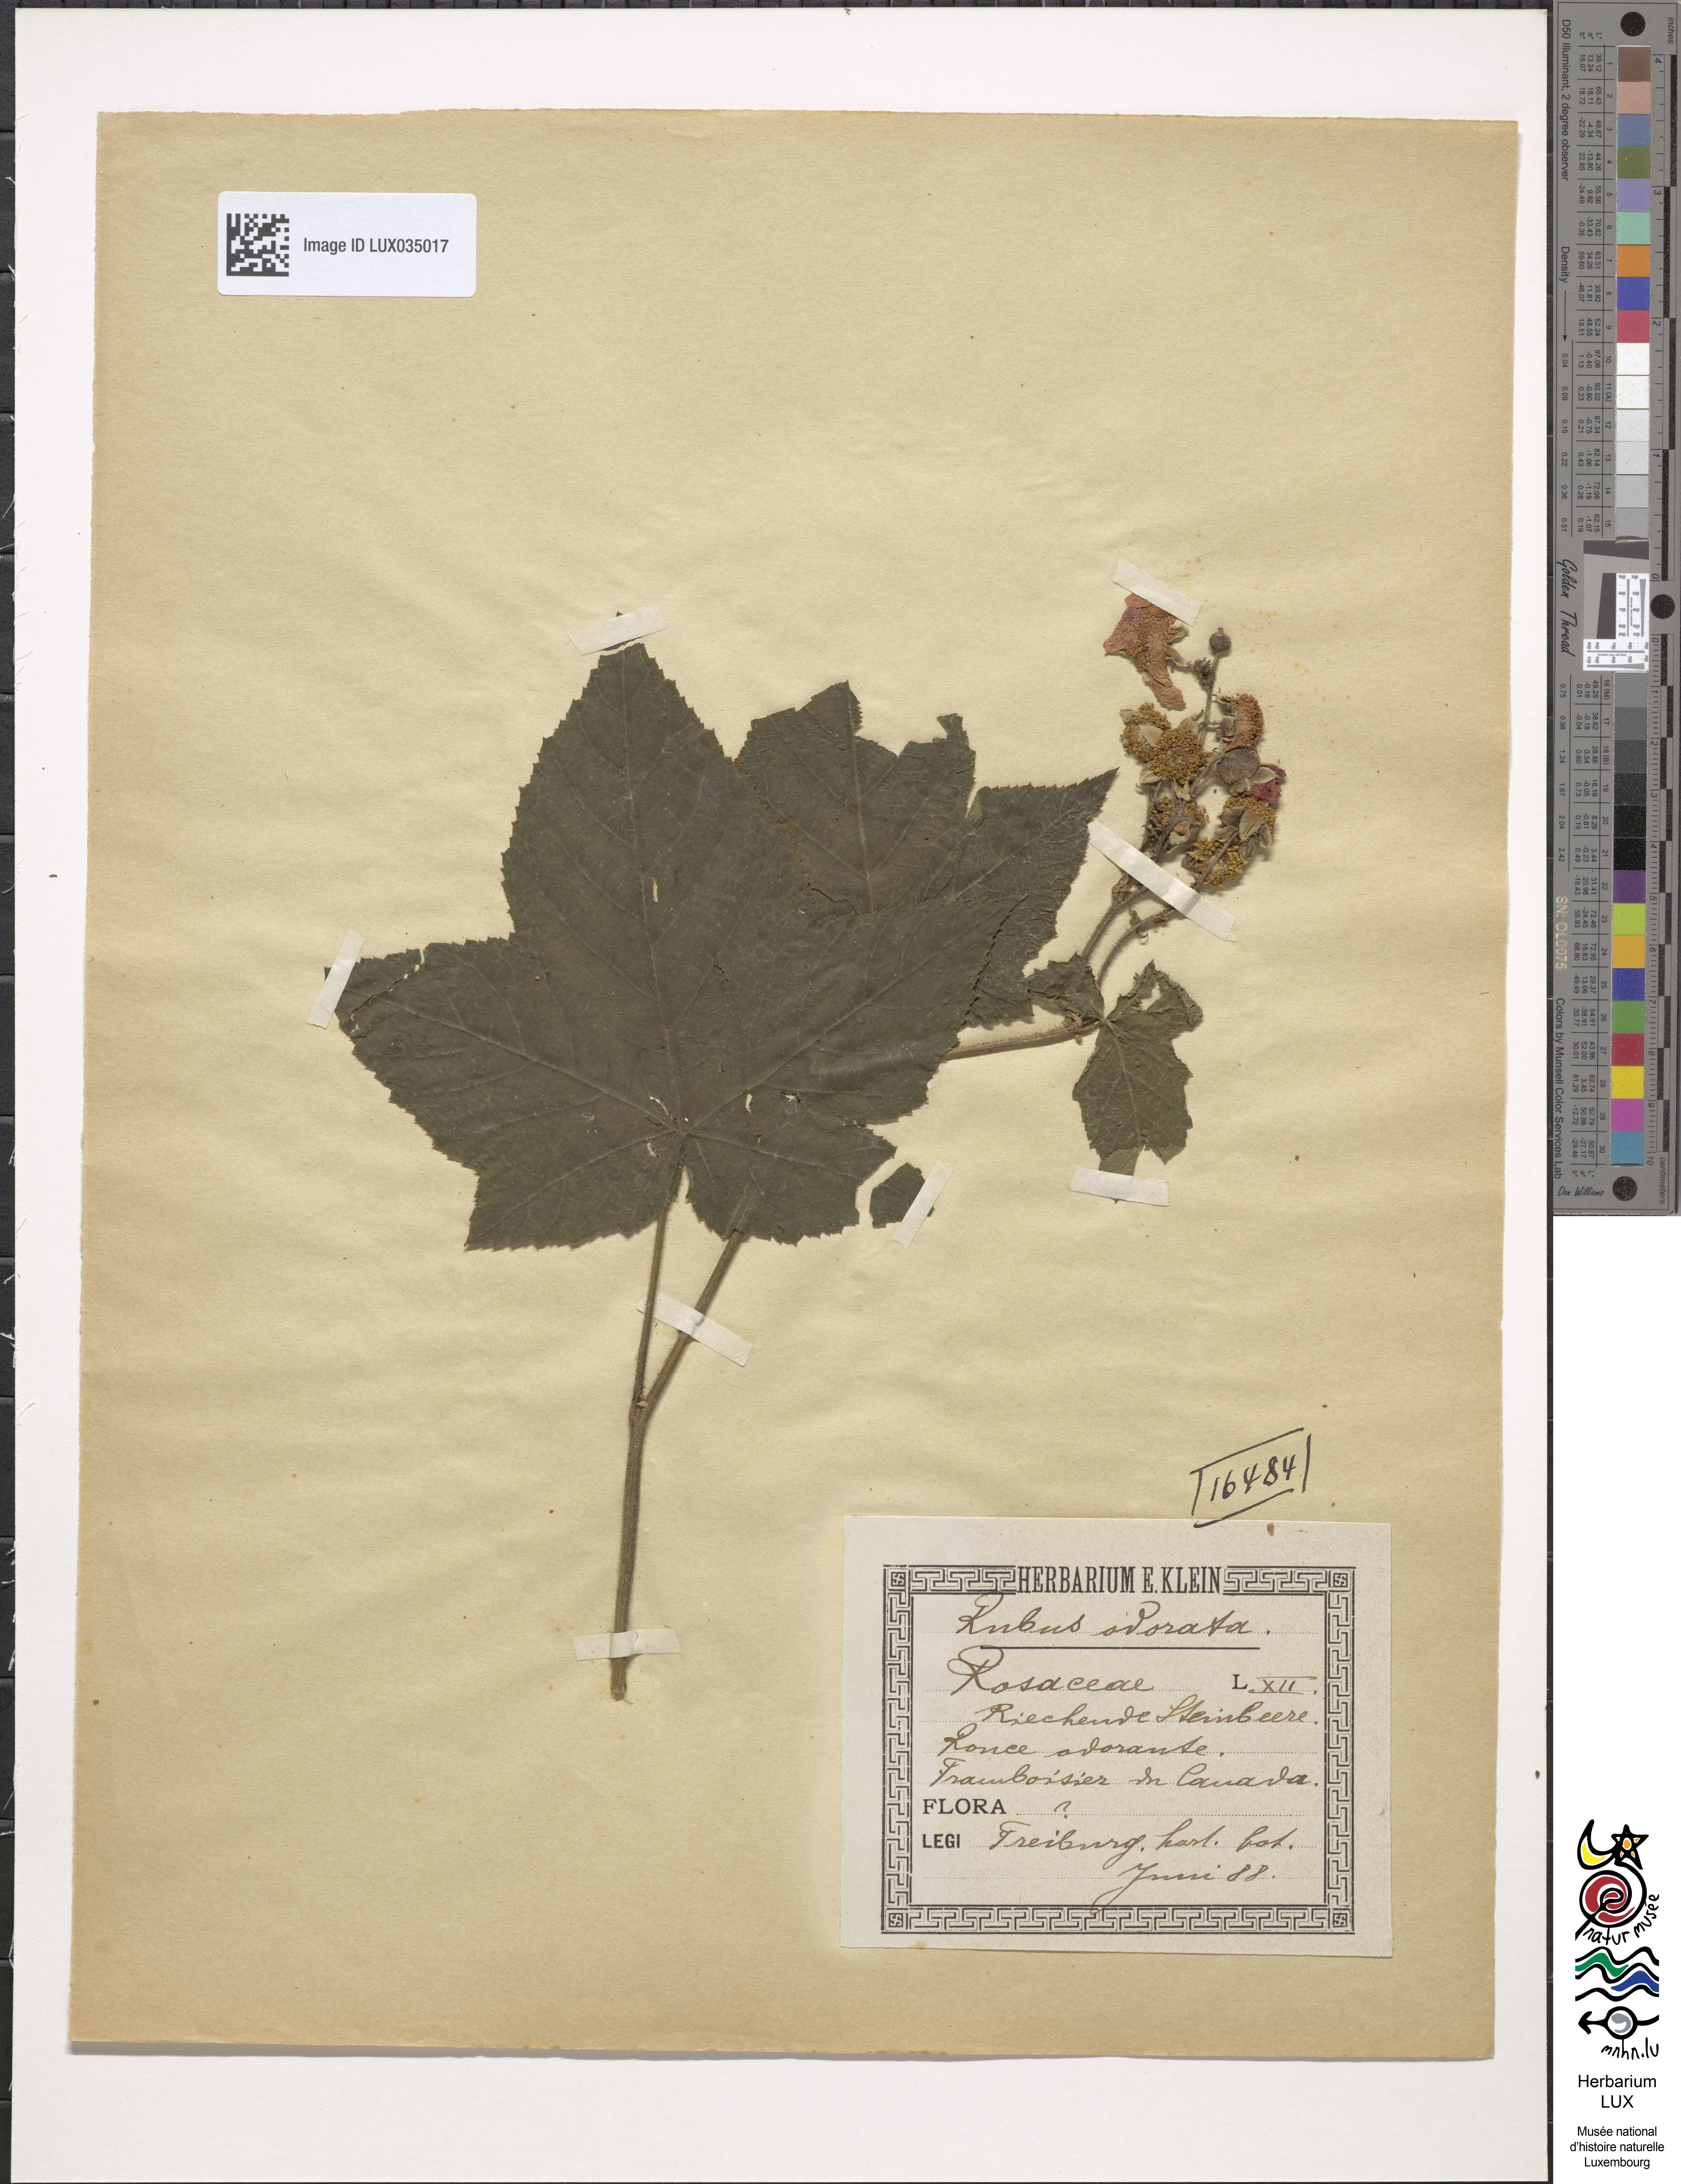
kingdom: Plantae
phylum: Tracheophyta
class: Magnoliopsida
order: Rosales
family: Rosaceae
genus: Rubus
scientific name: Rubus odoratus
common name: Purple-flowered raspberry
